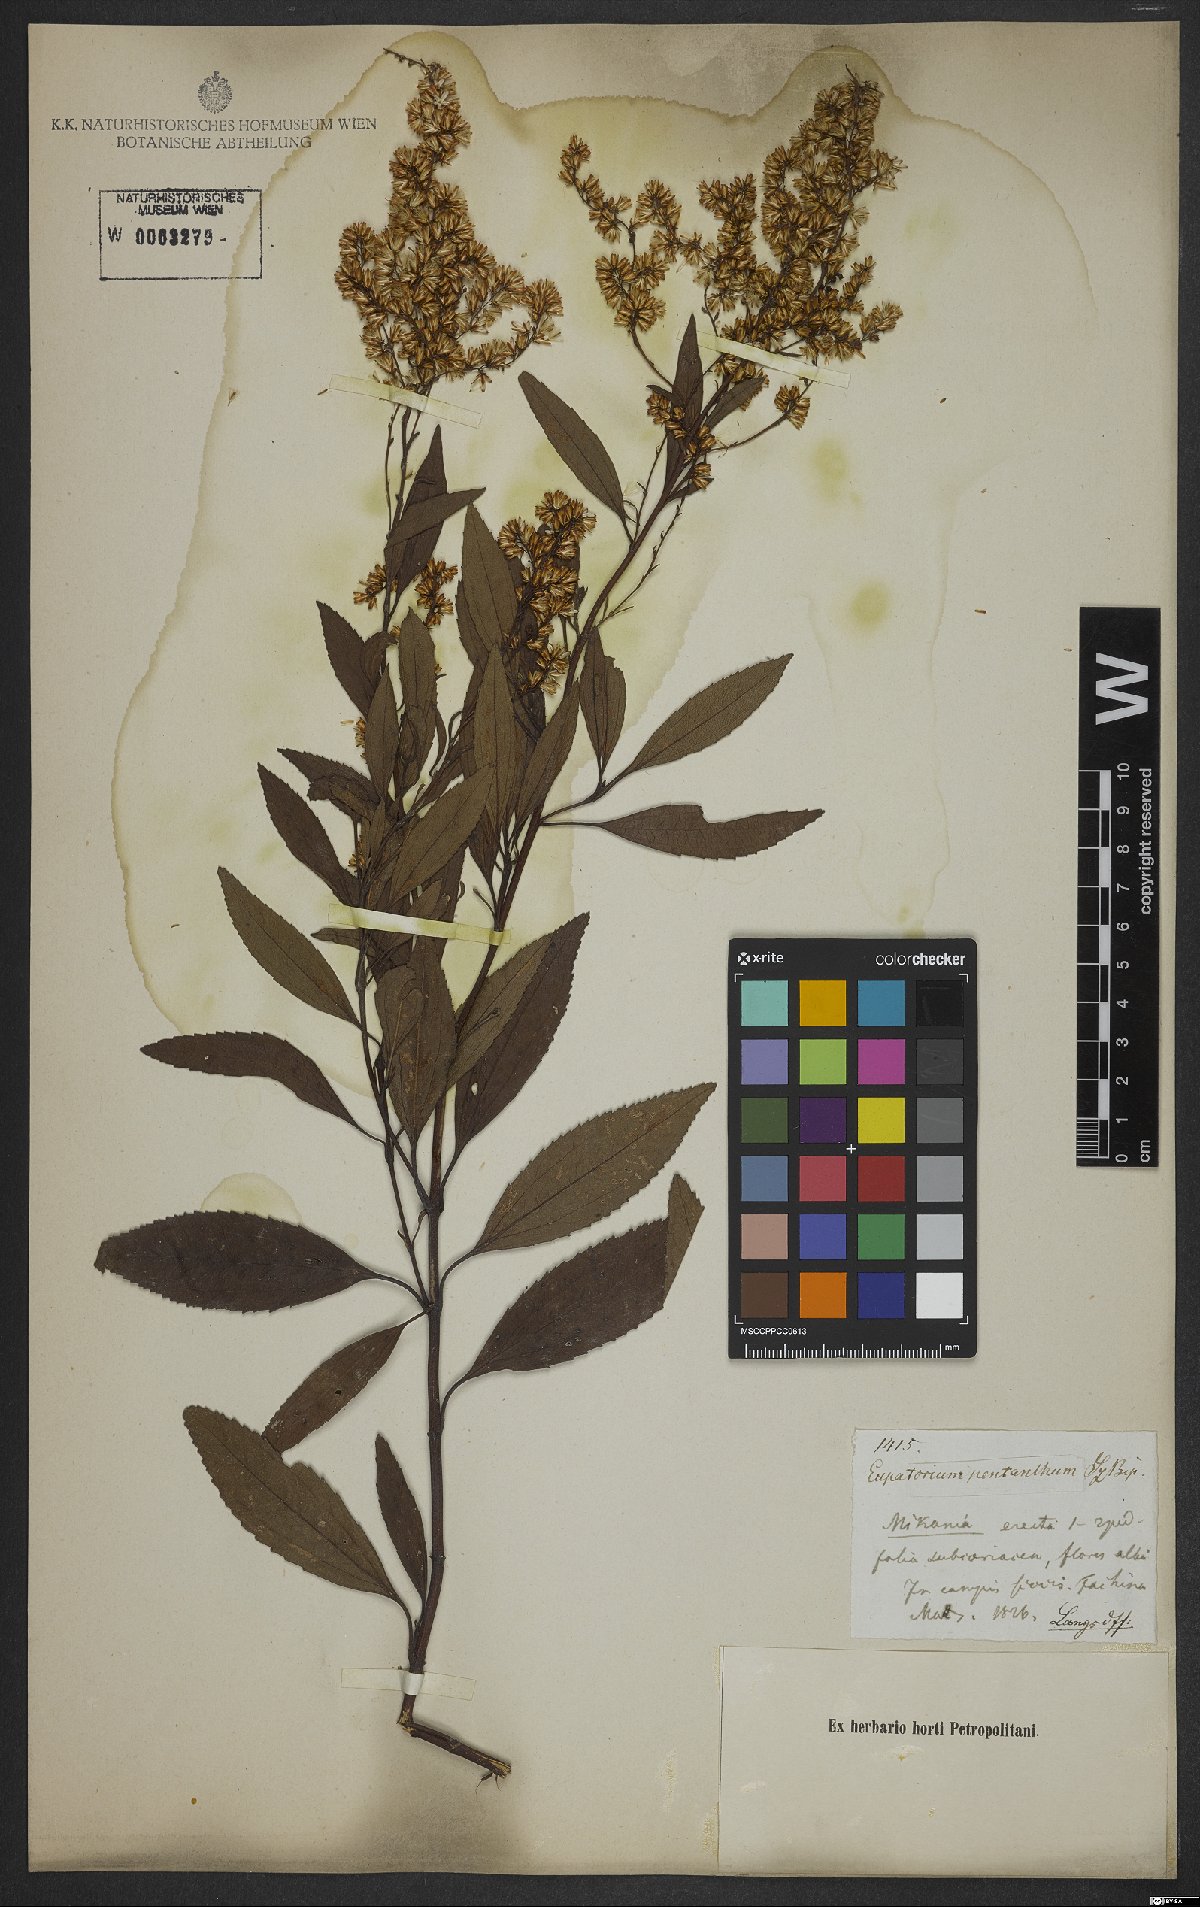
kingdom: Plantae
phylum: Tracheophyta
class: Magnoliopsida
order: Asterales
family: Asteraceae
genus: Ophryosporus
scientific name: Ophryosporus freyreysi
